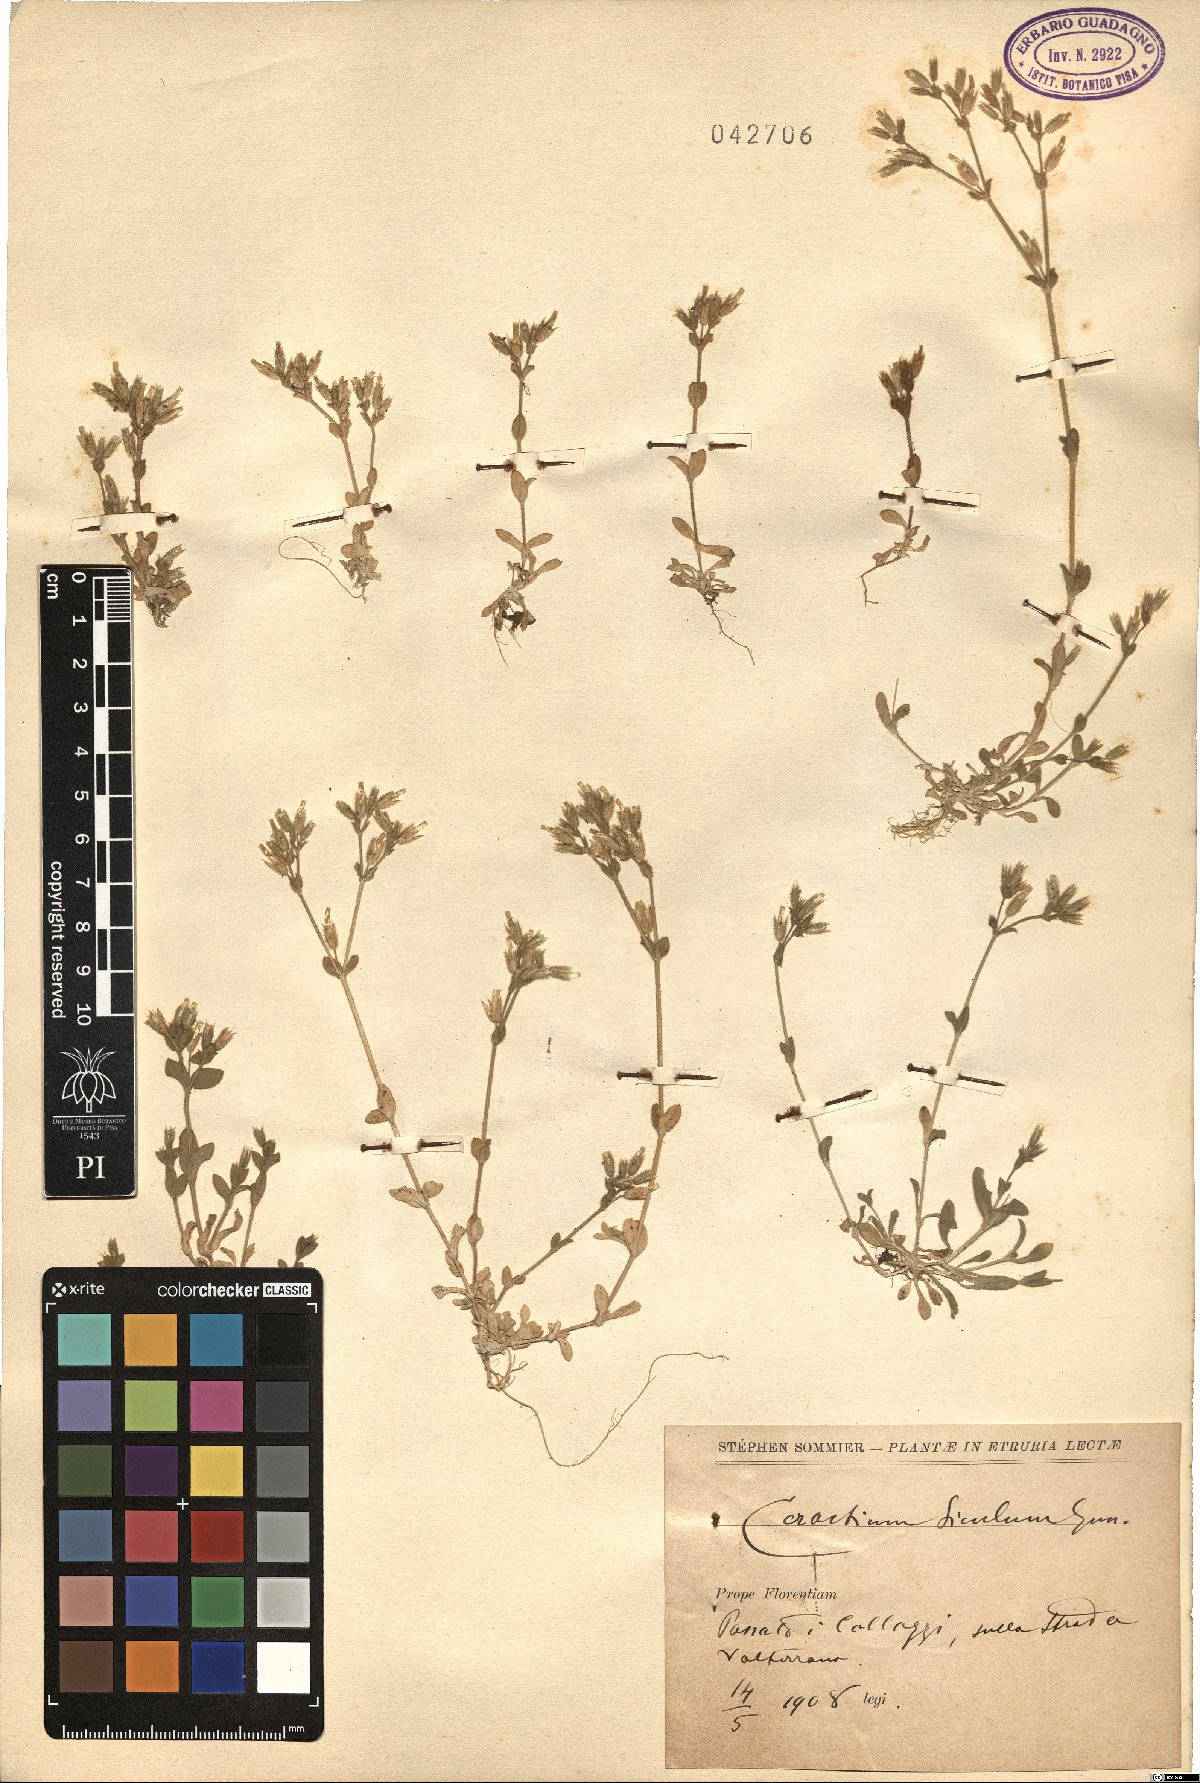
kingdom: Plantae
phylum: Tracheophyta
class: Magnoliopsida
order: Caryophyllales
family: Caryophyllaceae
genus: Cerastium
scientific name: Cerastium siculum
